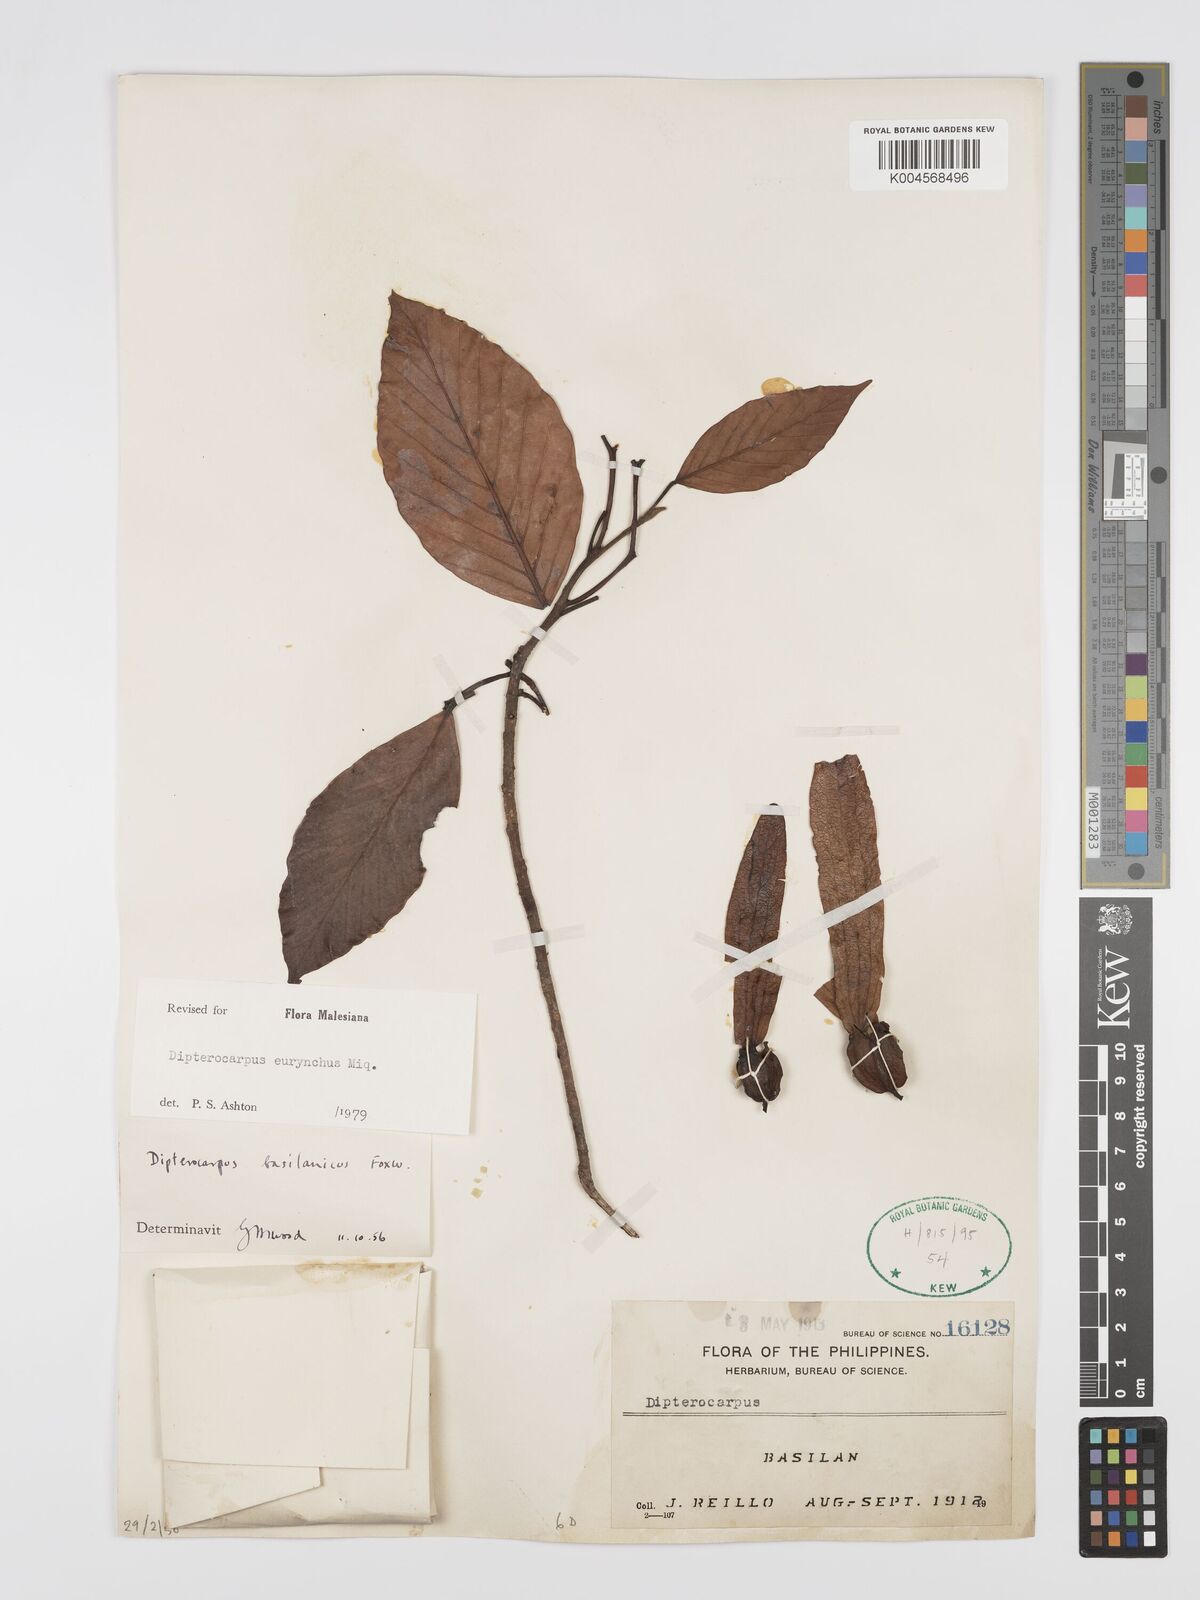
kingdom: Plantae
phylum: Tracheophyta
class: Magnoliopsida
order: Malvales
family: Dipterocarpaceae
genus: Dipterocarpus
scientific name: Dipterocarpus eurhynchus
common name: Keruing
